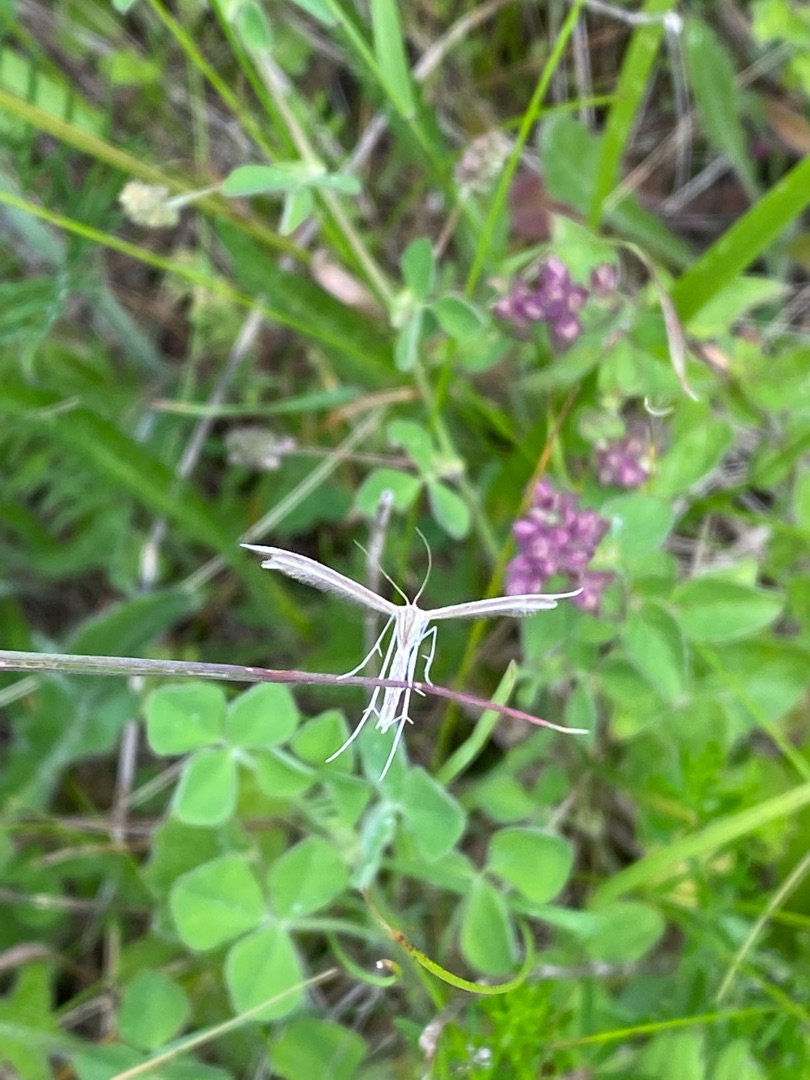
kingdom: Animalia
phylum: Arthropoda
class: Insecta
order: Lepidoptera
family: Pterophoridae
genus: Pterophorus
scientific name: Pterophorus pentadactyla
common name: Hvidt fjermøl
